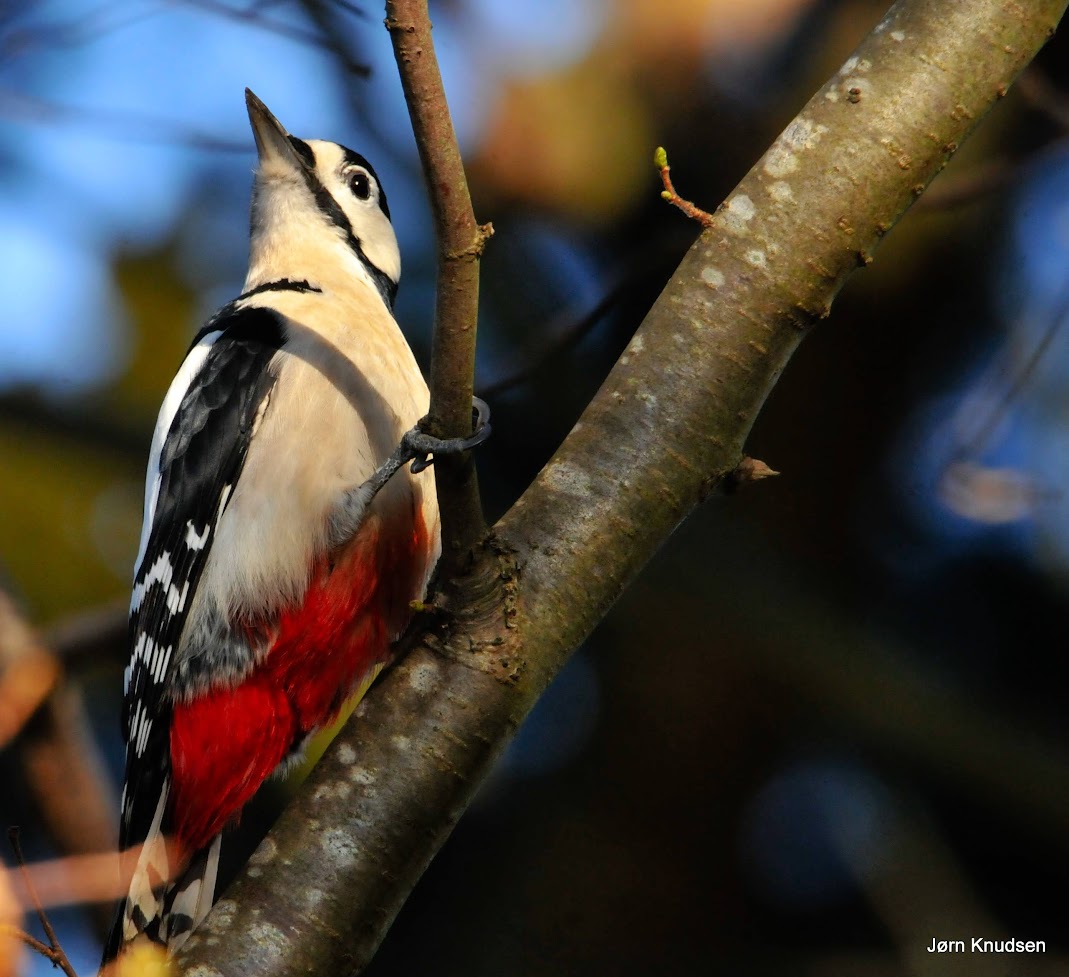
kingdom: Animalia
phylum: Chordata
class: Aves
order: Piciformes
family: Picidae
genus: Dendrocopos
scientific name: Dendrocopos major
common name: Stor flagspætte
